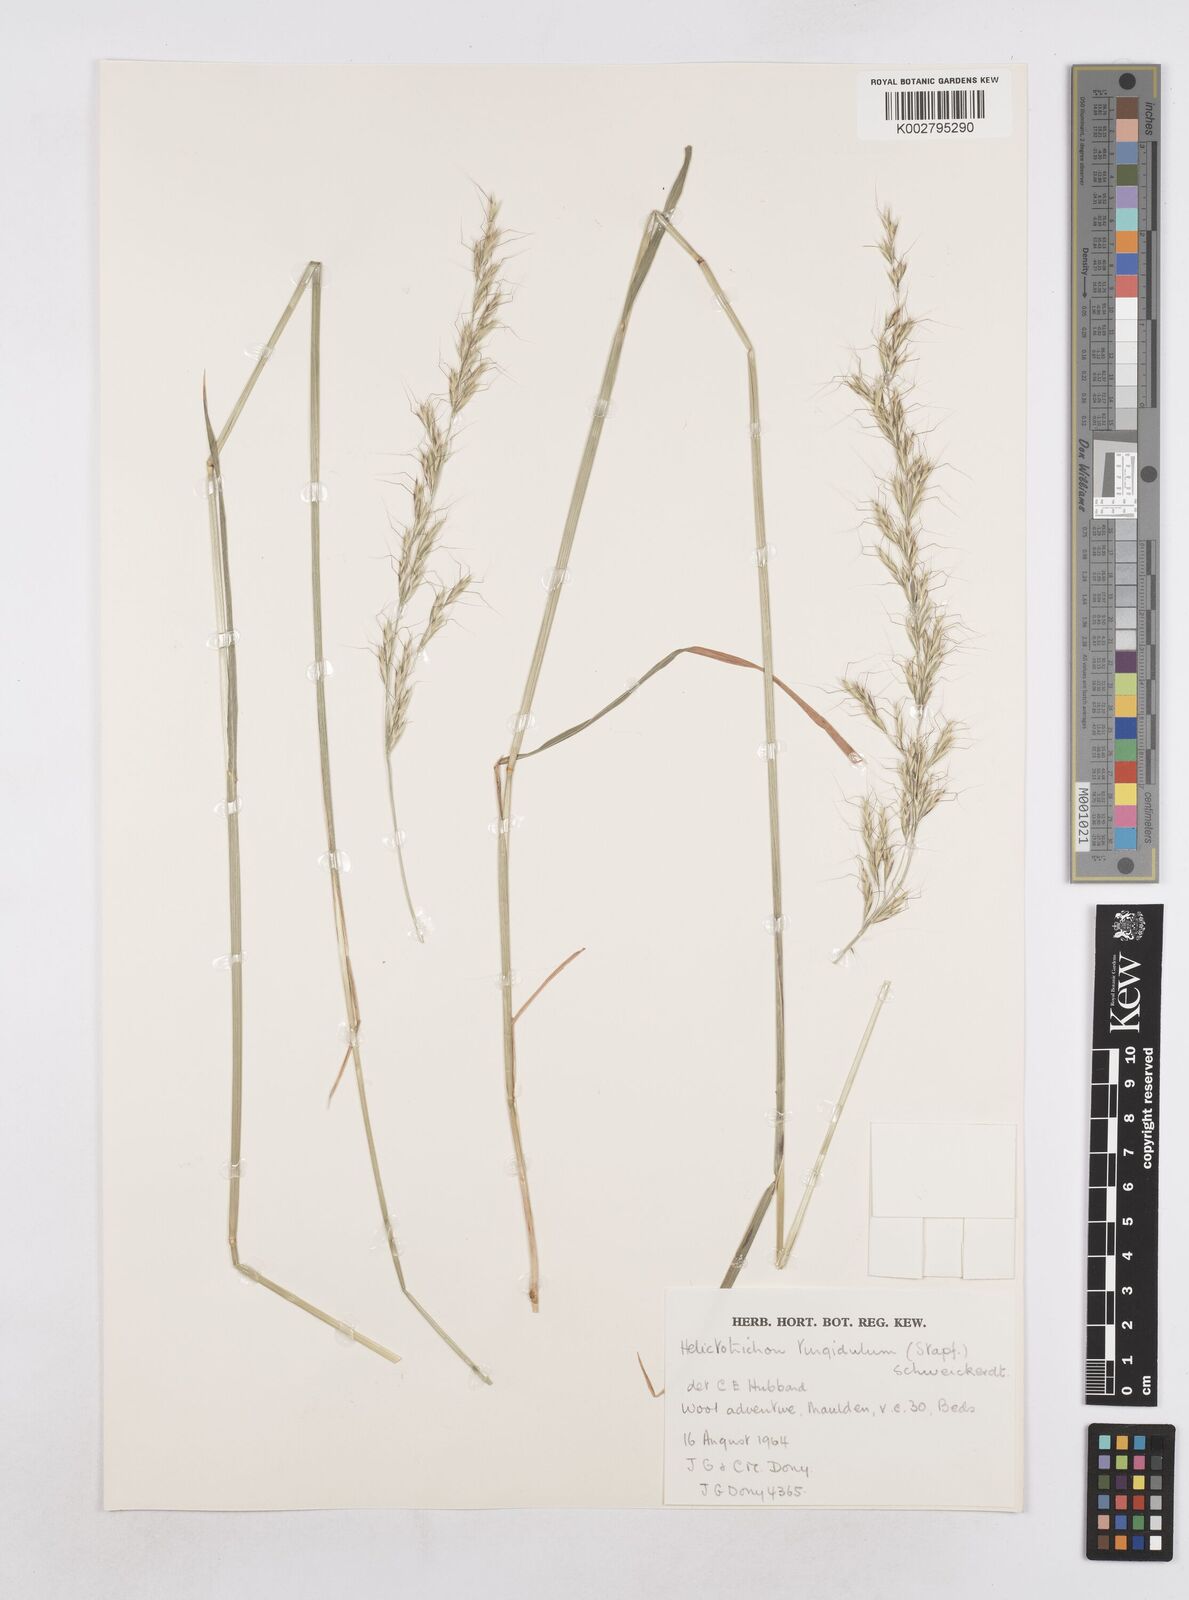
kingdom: Plantae
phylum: Tracheophyta
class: Liliopsida
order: Poales
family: Poaceae
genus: Trisetopsis
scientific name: Trisetopsis imberbis
